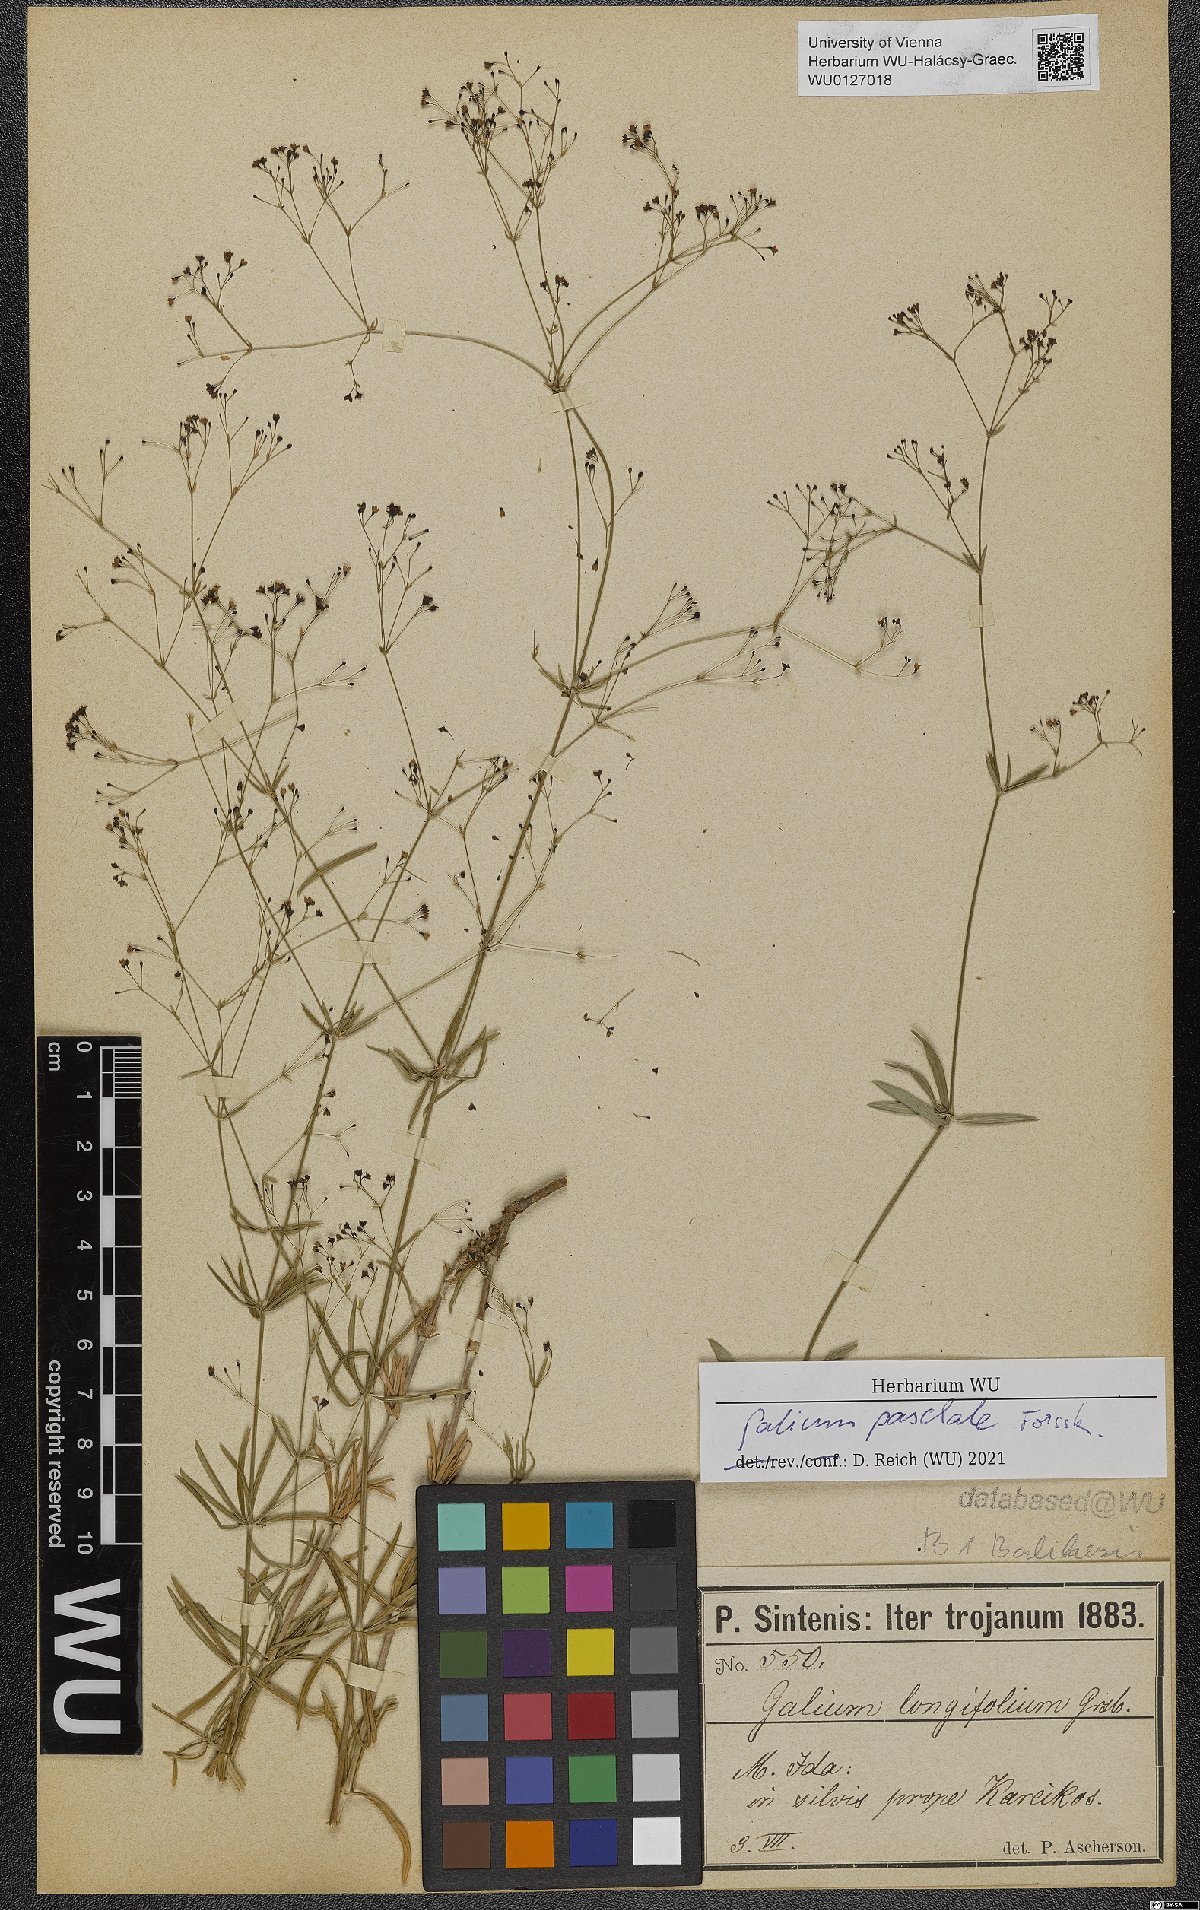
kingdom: Plantae
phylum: Tracheophyta
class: Magnoliopsida
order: Gentianales
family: Rubiaceae
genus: Galium
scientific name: Galium paschale
